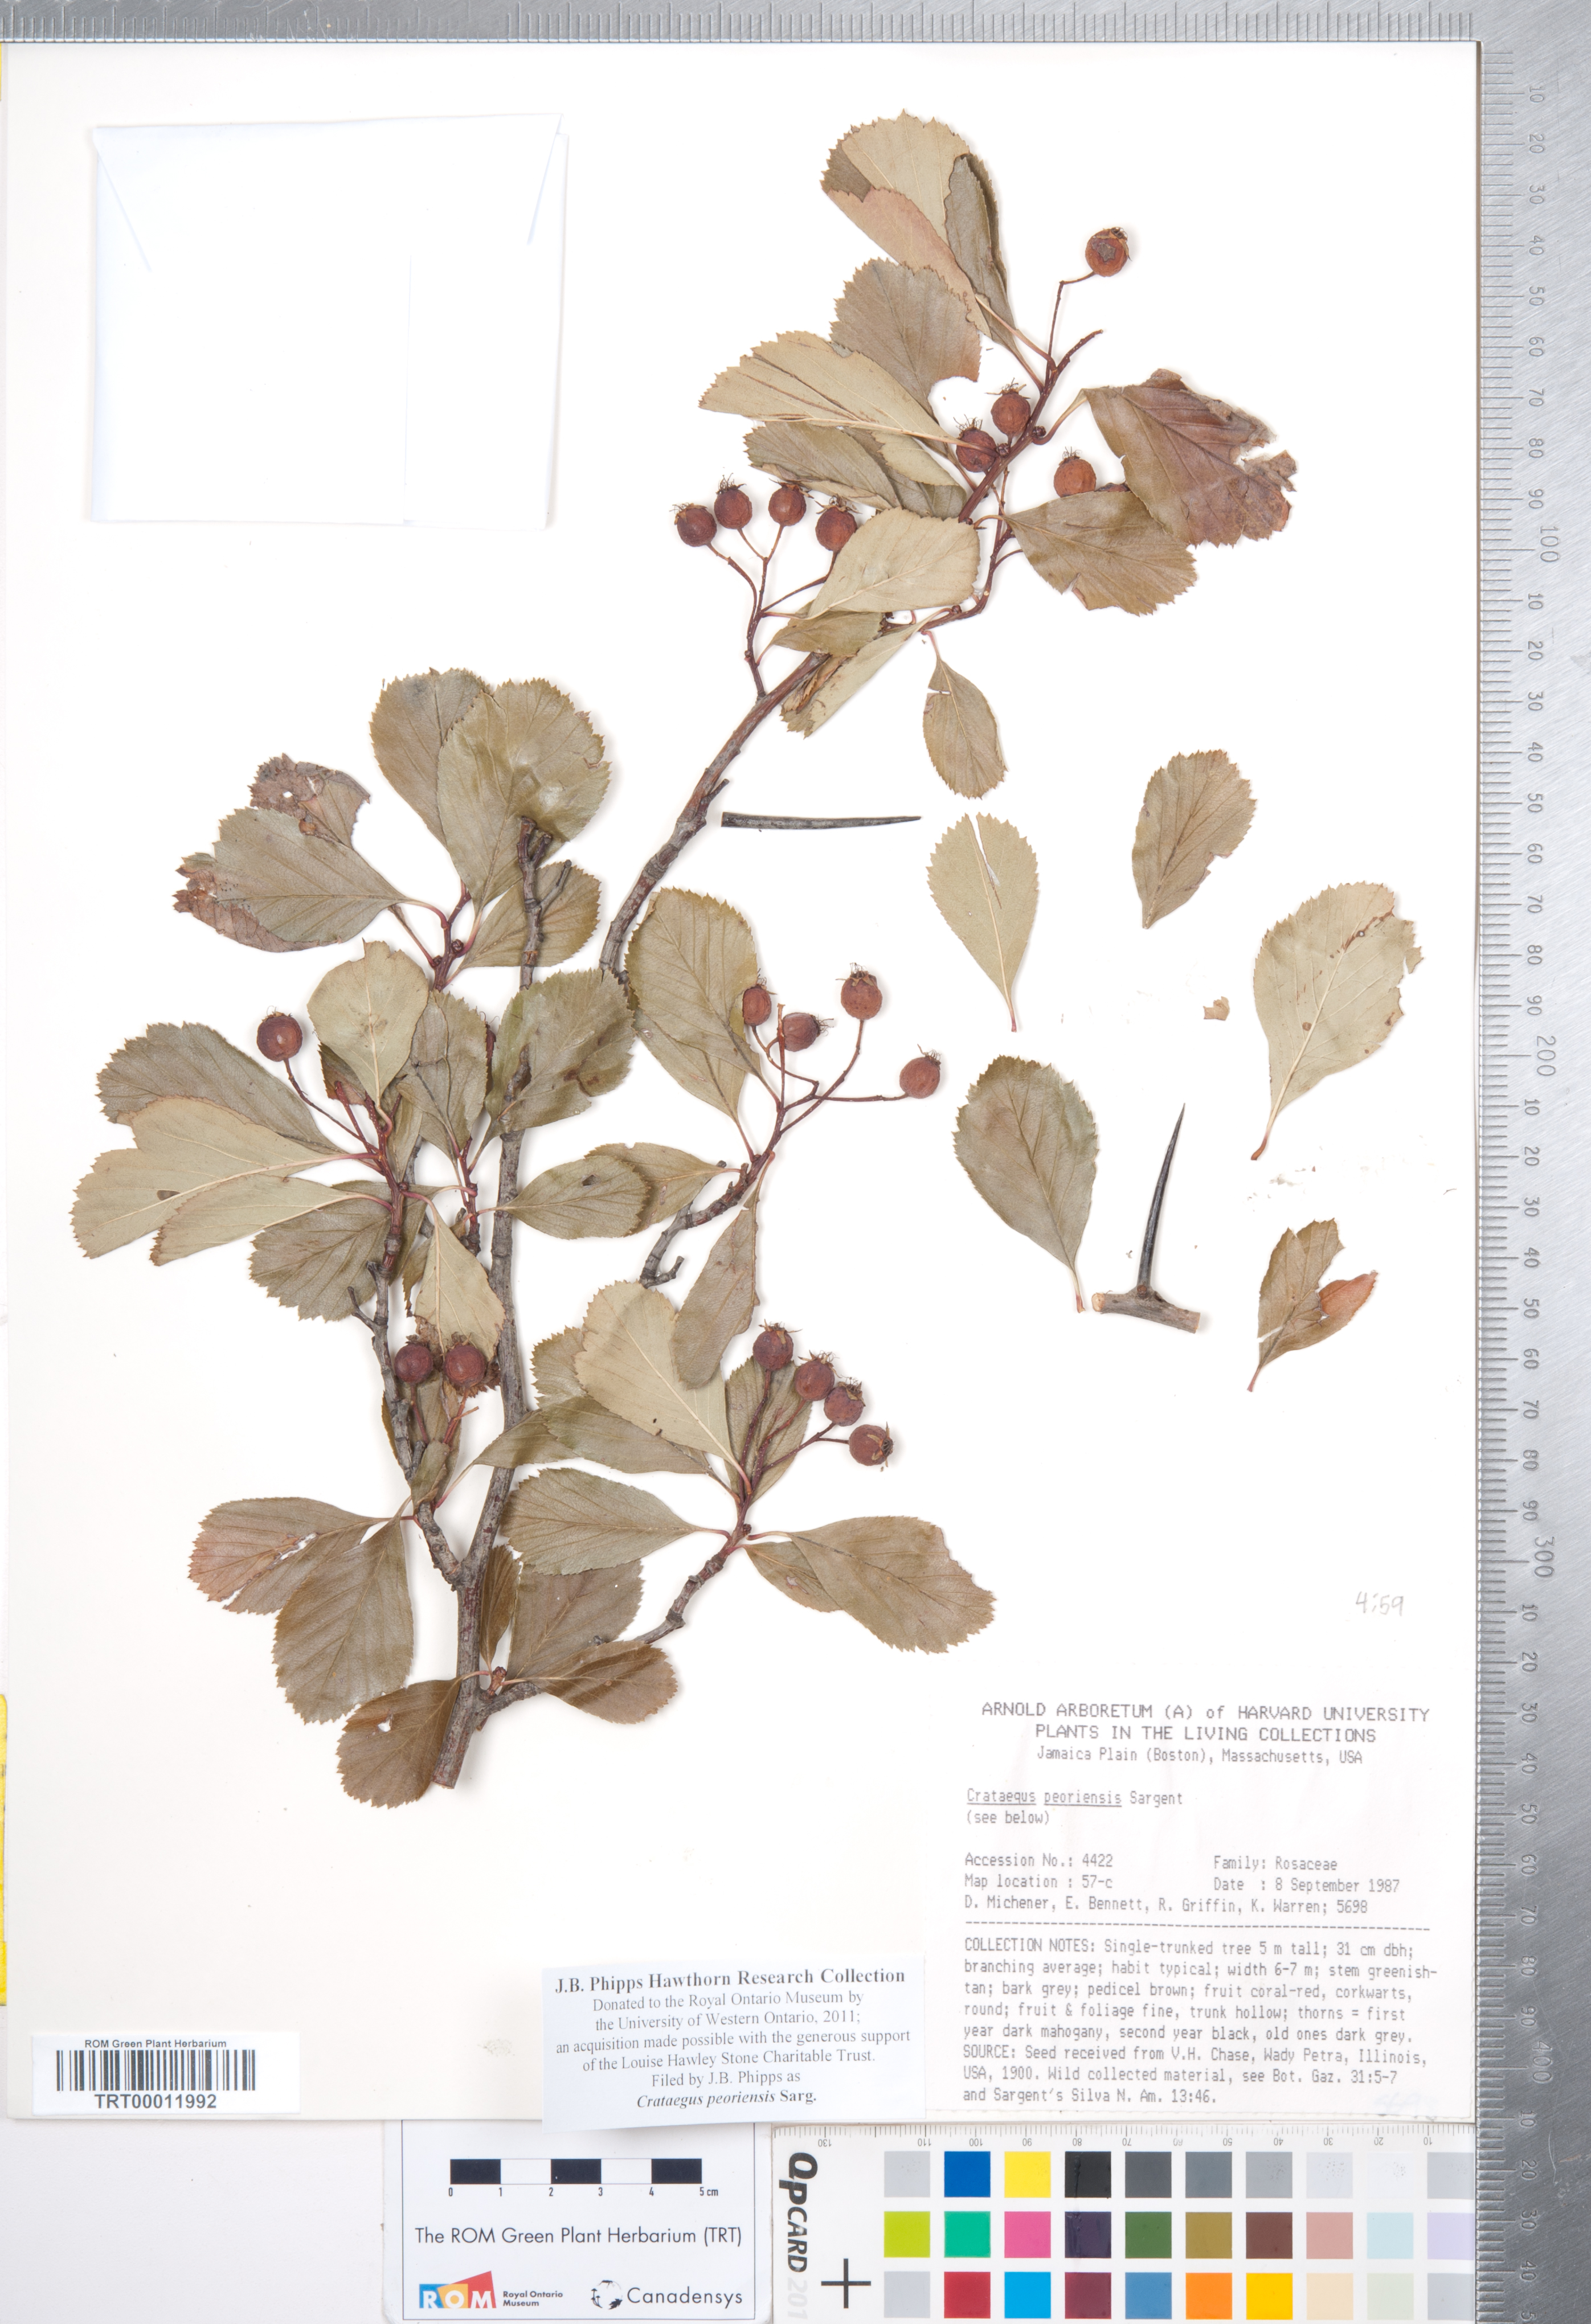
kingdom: Plantae
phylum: Tracheophyta
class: Magnoliopsida
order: Rosales
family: Rosaceae
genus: Crataegus
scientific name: Crataegus disperma
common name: Spreading hawthorn
